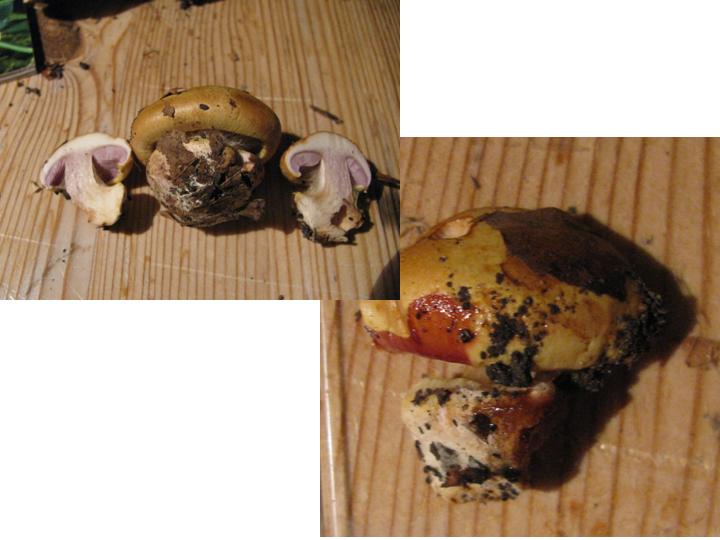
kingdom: Fungi
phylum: Basidiomycota
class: Agaricomycetes
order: Agaricales
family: Cortinariaceae
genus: Calonarius
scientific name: Calonarius callochrous
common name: lillabladet slørhat
